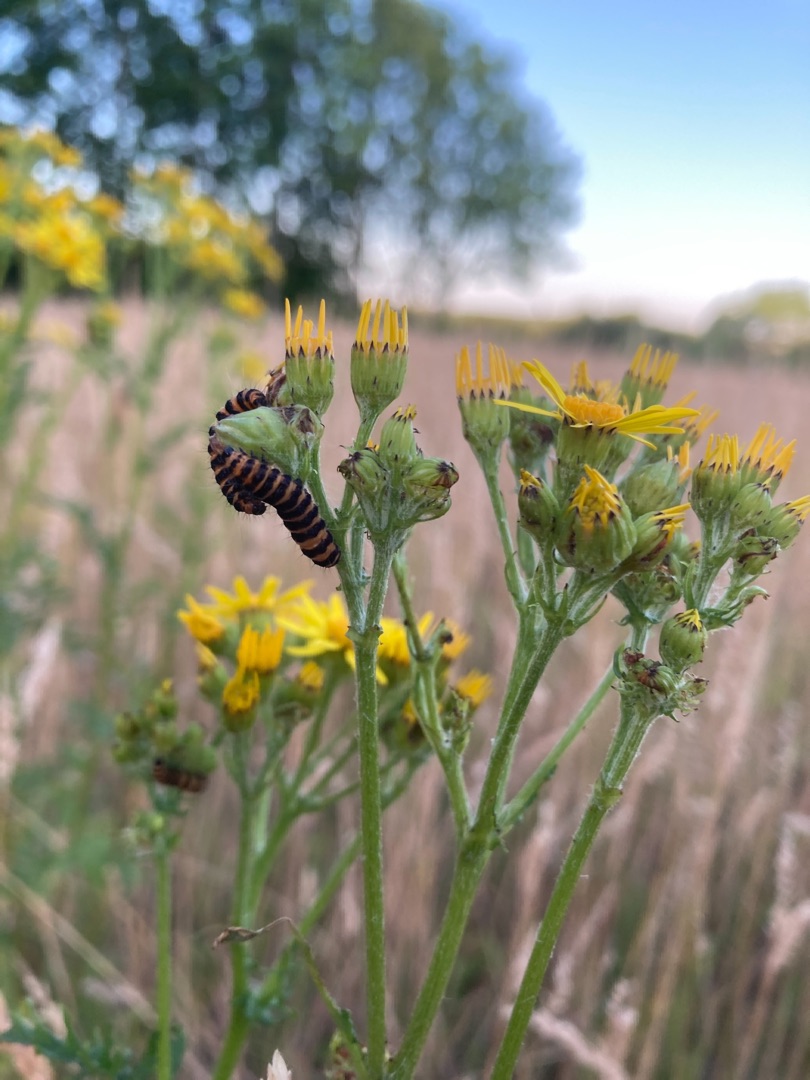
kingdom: Animalia
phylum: Arthropoda
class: Insecta
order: Lepidoptera
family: Erebidae
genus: Tyria
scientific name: Tyria jacobaeae
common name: Blodplet
